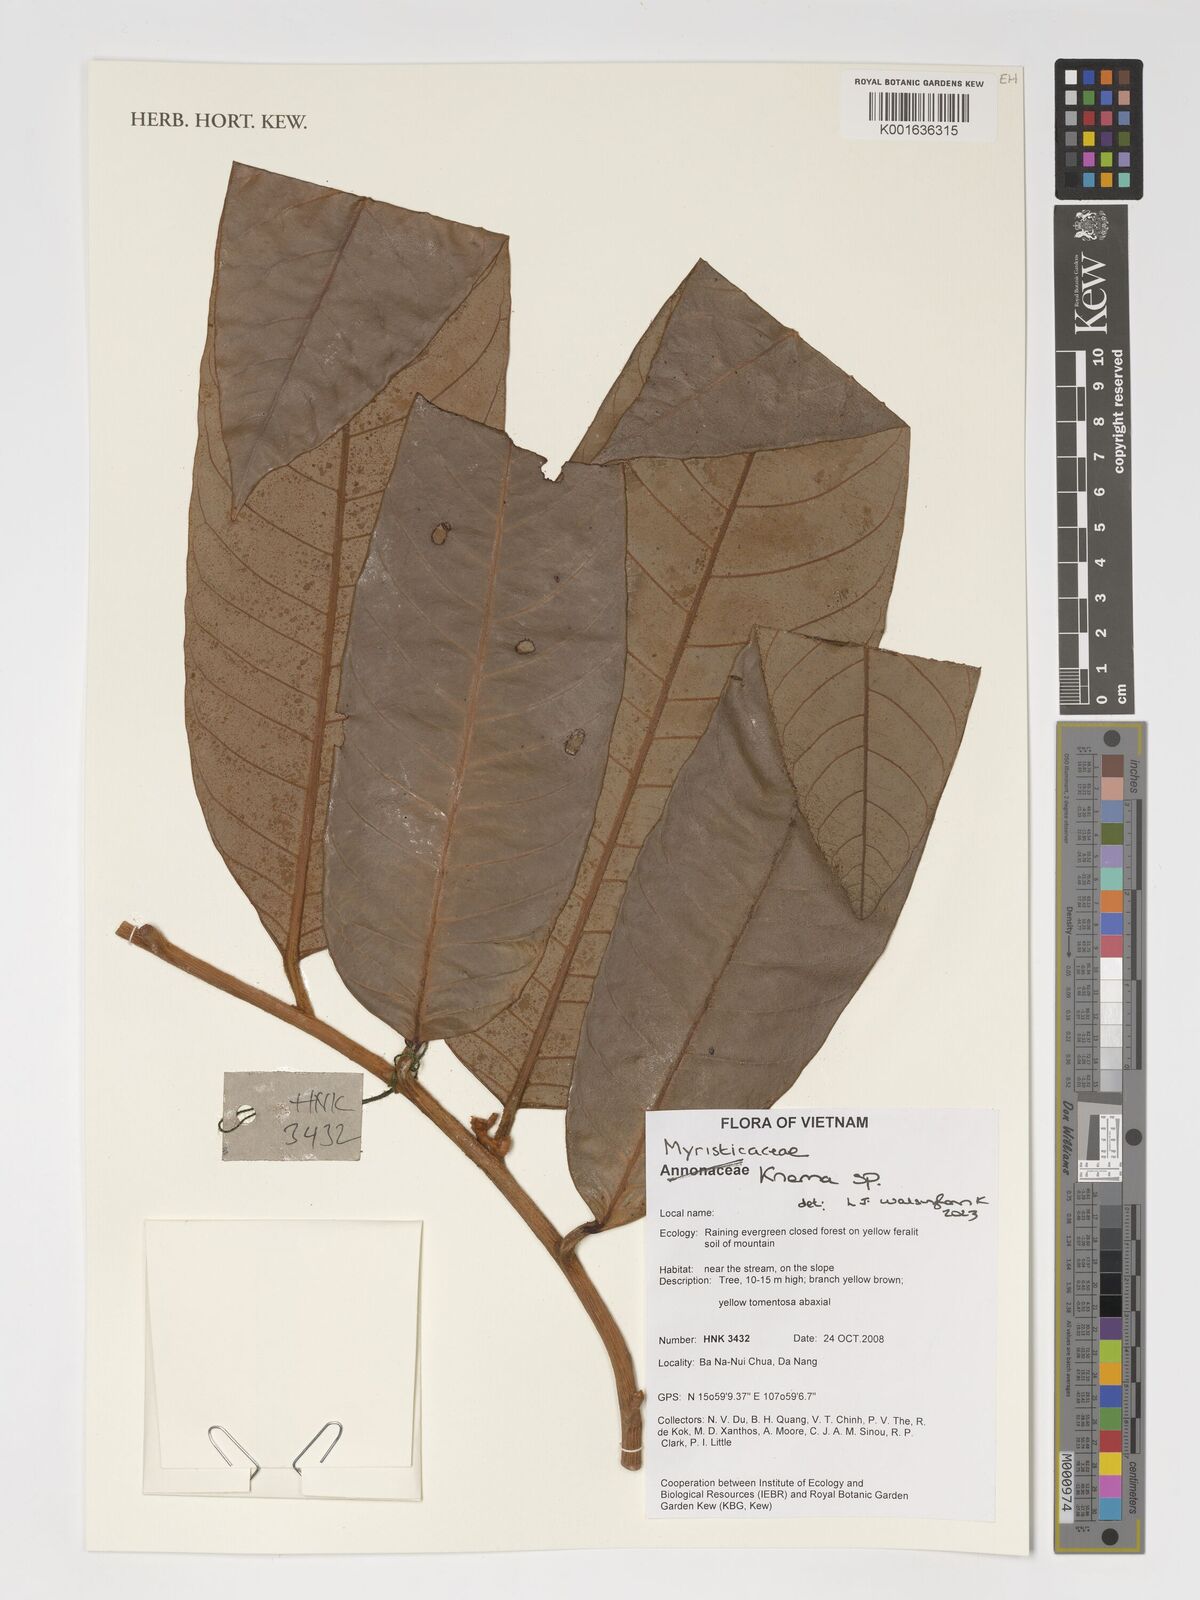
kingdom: Plantae
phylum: Tracheophyta
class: Magnoliopsida
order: Magnoliales
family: Myristicaceae
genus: Knema
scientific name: Knema
